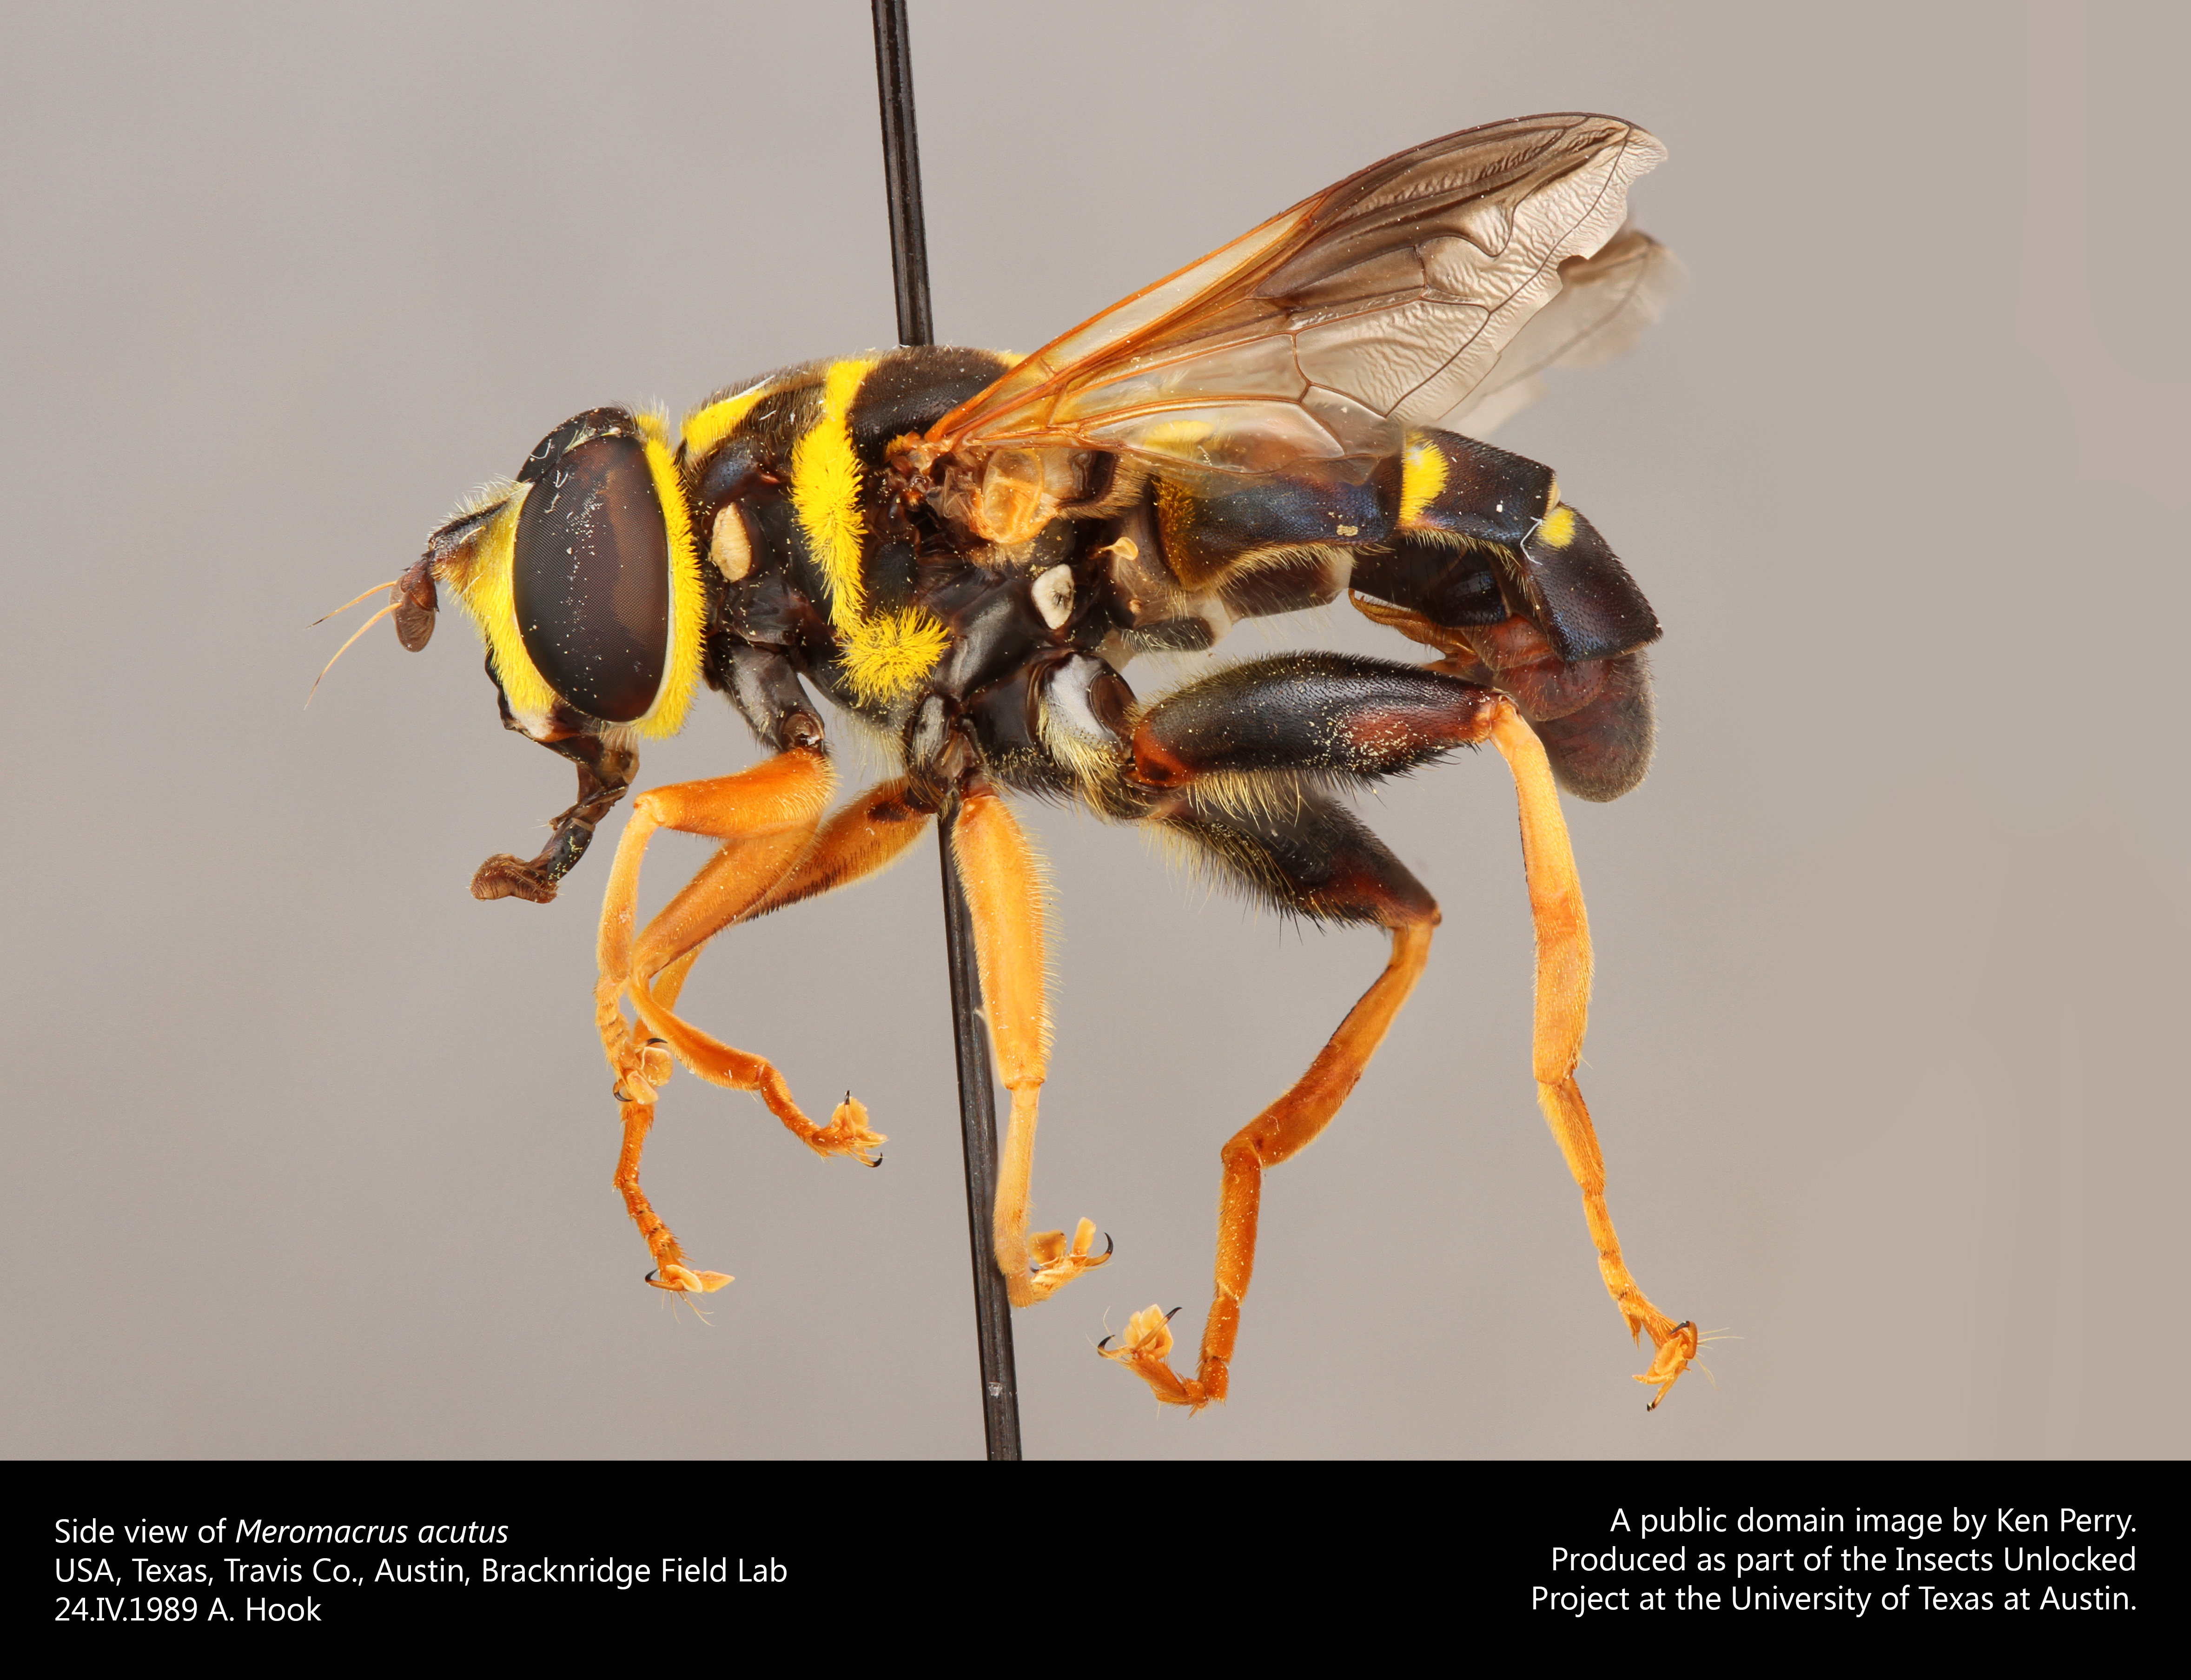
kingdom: Animalia
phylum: Arthropoda
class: Insecta
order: Diptera
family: Syrphidae
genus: Meromacrus
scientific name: Meromacrus acutus
